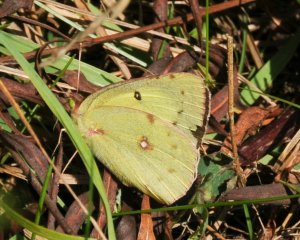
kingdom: Animalia
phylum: Arthropoda
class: Insecta
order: Lepidoptera
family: Pieridae
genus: Colias
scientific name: Colias philodice
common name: Clouded Sulphur
